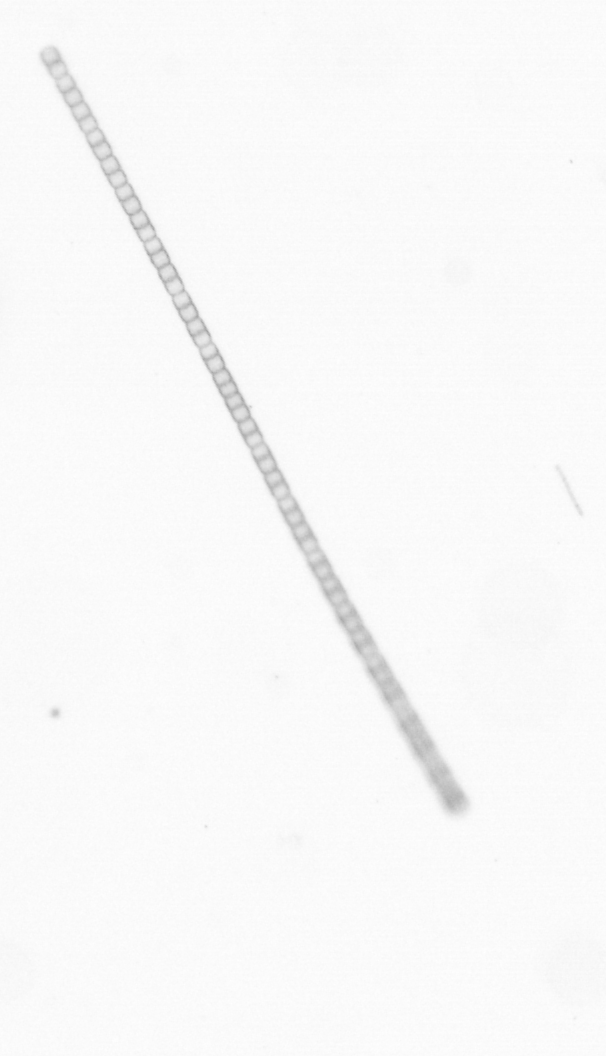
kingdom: Chromista
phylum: Ochrophyta
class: Bacillariophyceae
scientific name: Bacillariophyceae
